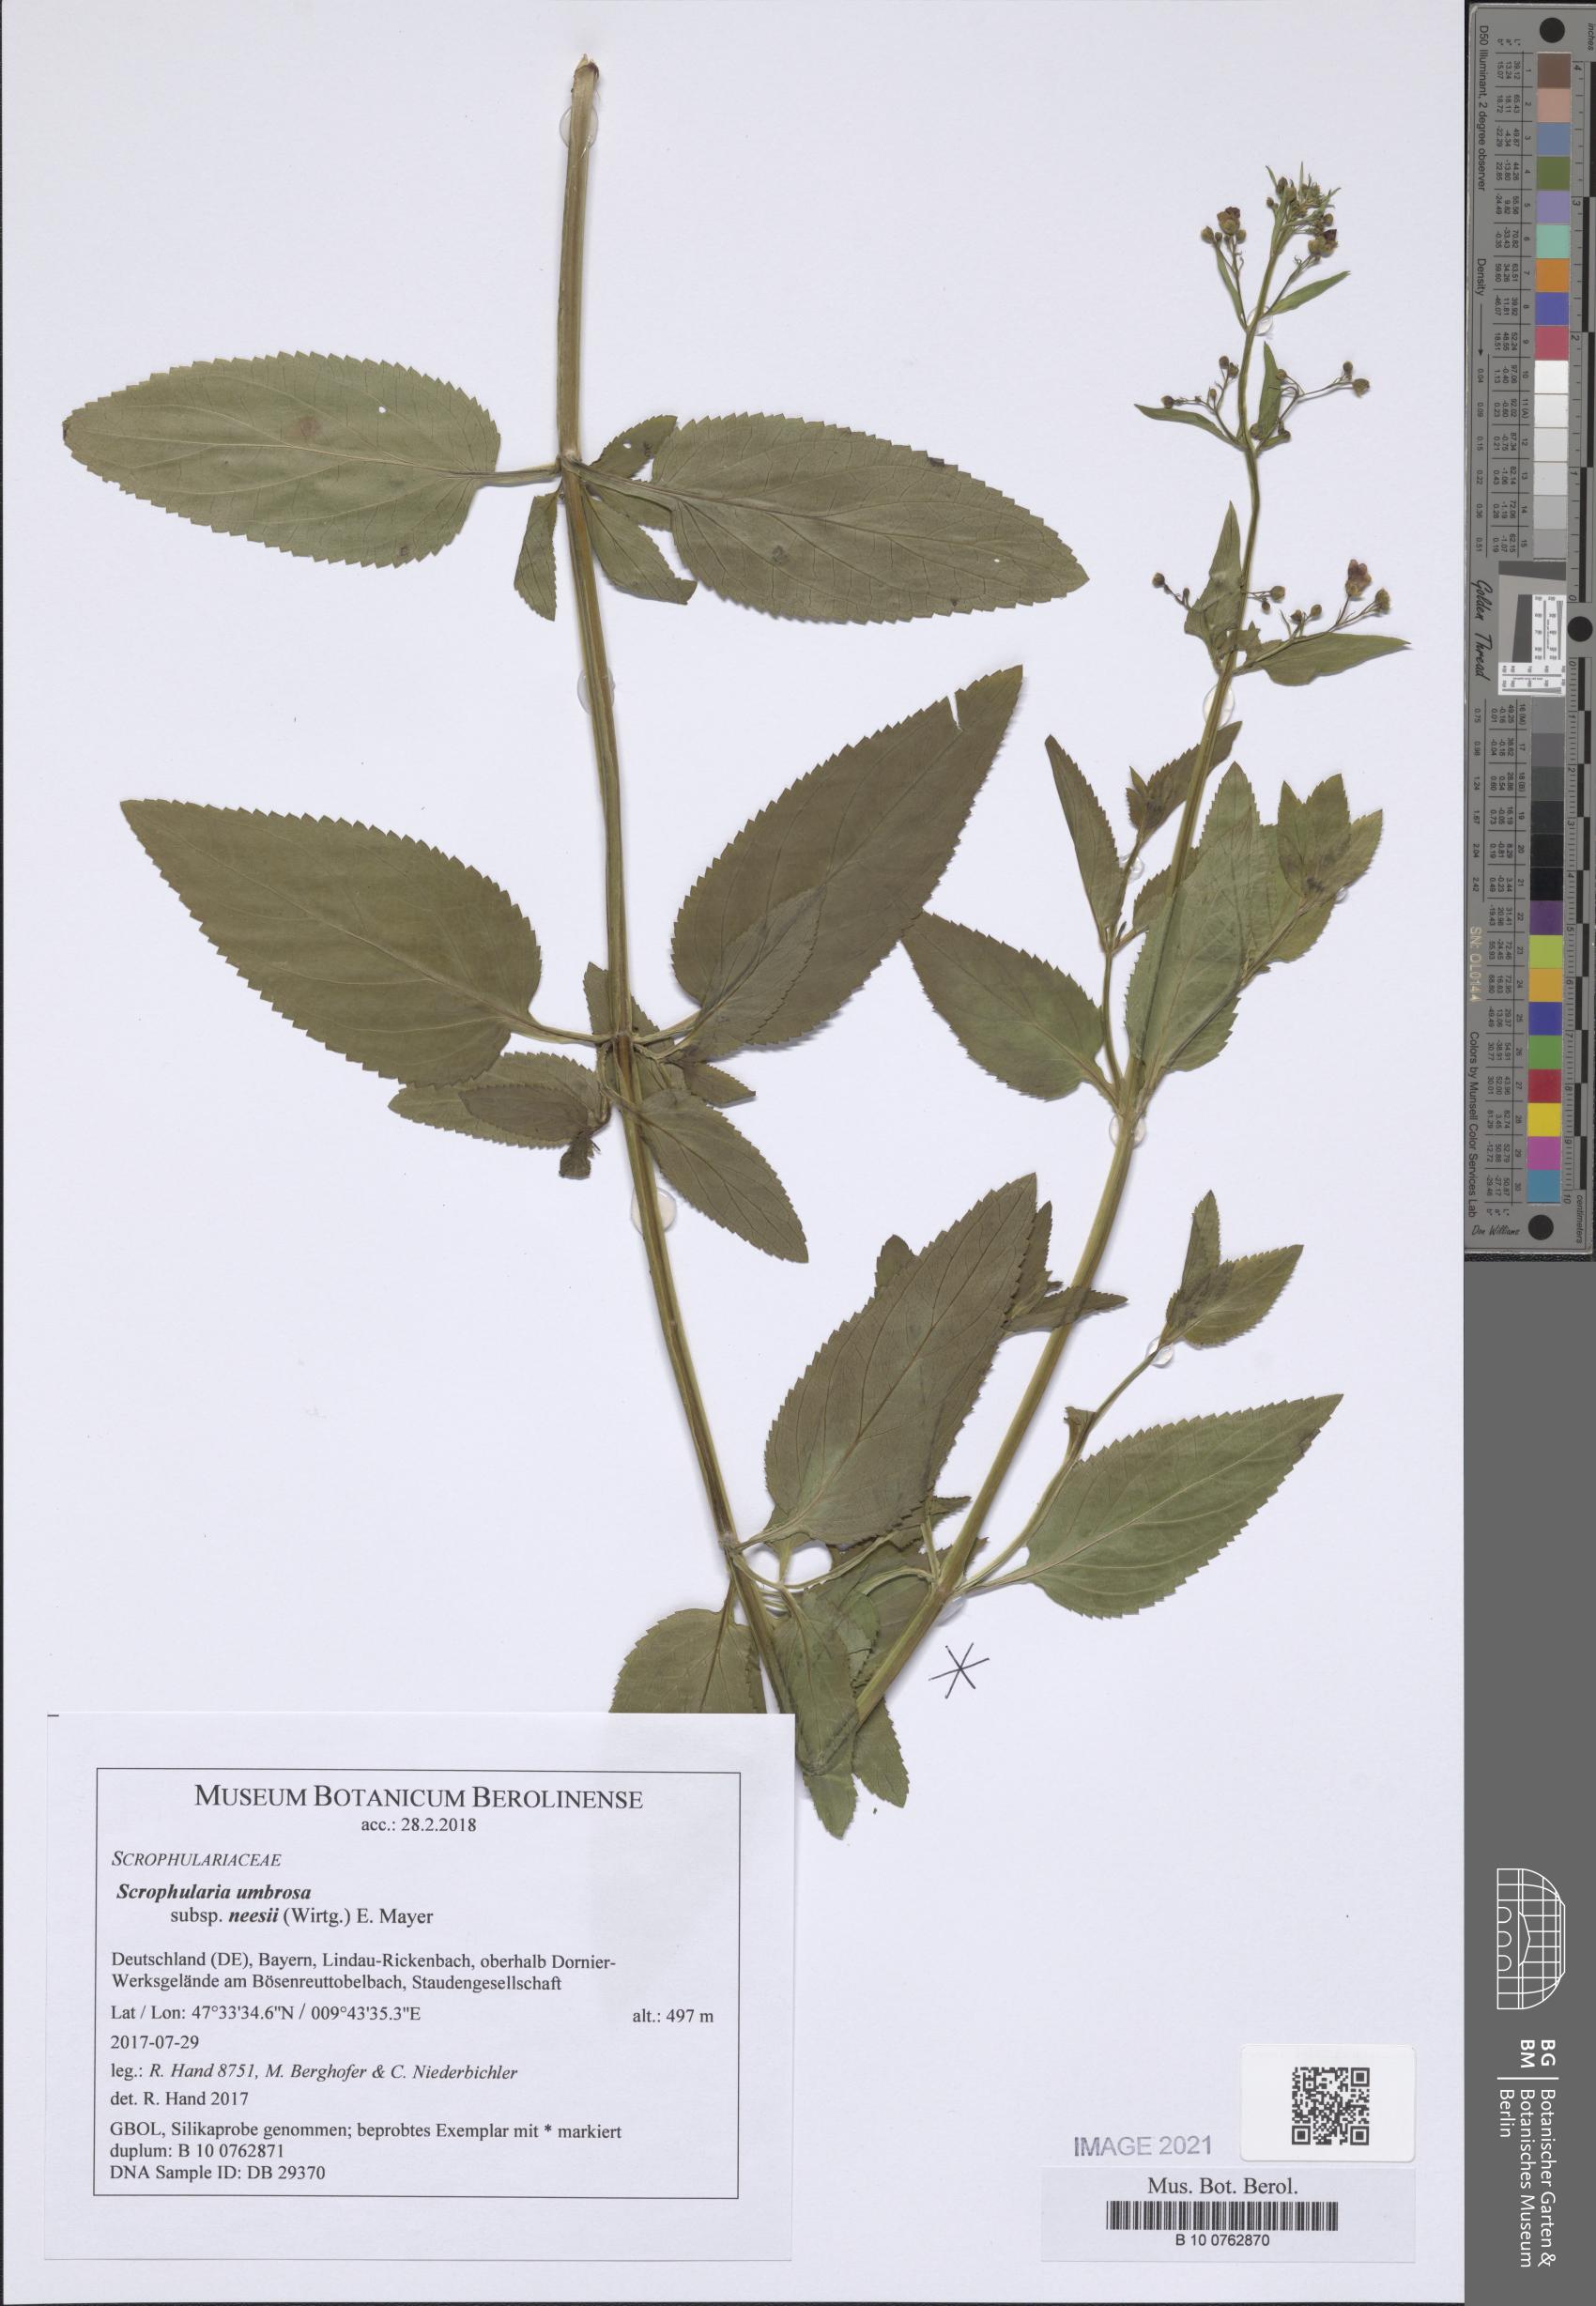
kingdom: Plantae
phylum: Tracheophyta
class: Magnoliopsida
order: Lamiales
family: Scrophulariaceae
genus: Scrophularia
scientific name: Scrophularia neesii
